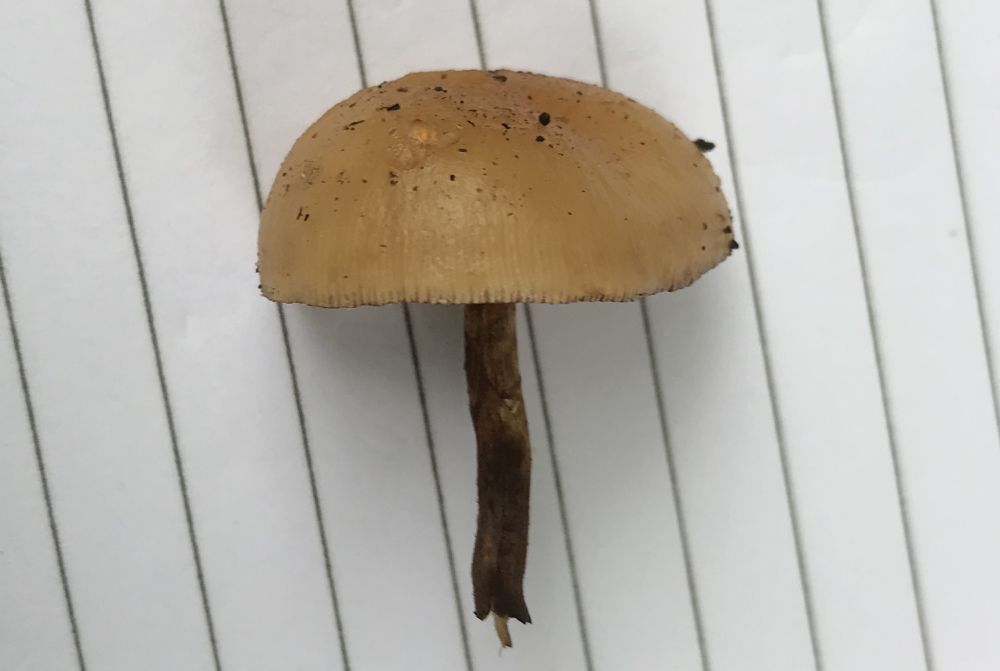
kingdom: Fungi
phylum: Basidiomycota
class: Agaricomycetes
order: Agaricales
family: Hymenogastraceae
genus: Galerina
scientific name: Galerina marginata
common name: randbæltet hjelmhat
